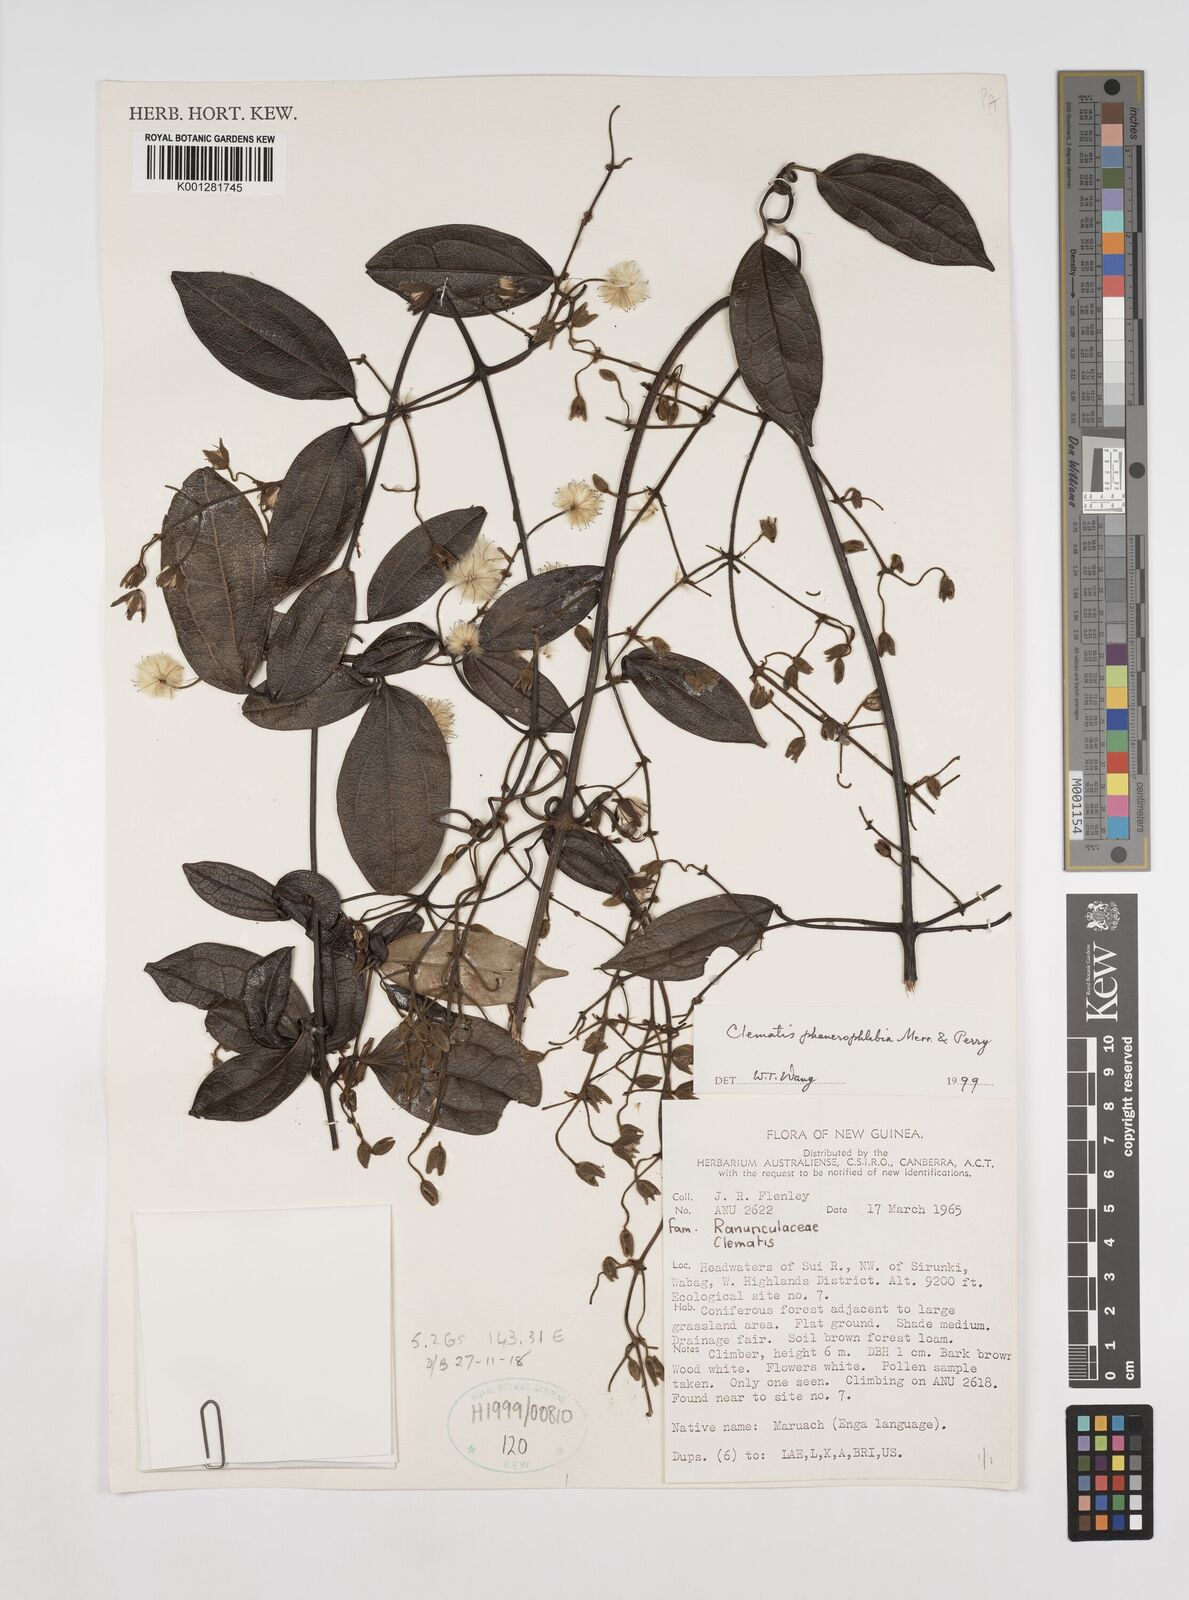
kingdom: Plantae
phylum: Tracheophyta
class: Magnoliopsida
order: Ranunculales
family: Ranunculaceae
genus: Clematis
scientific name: Clematis phanerophlebia
